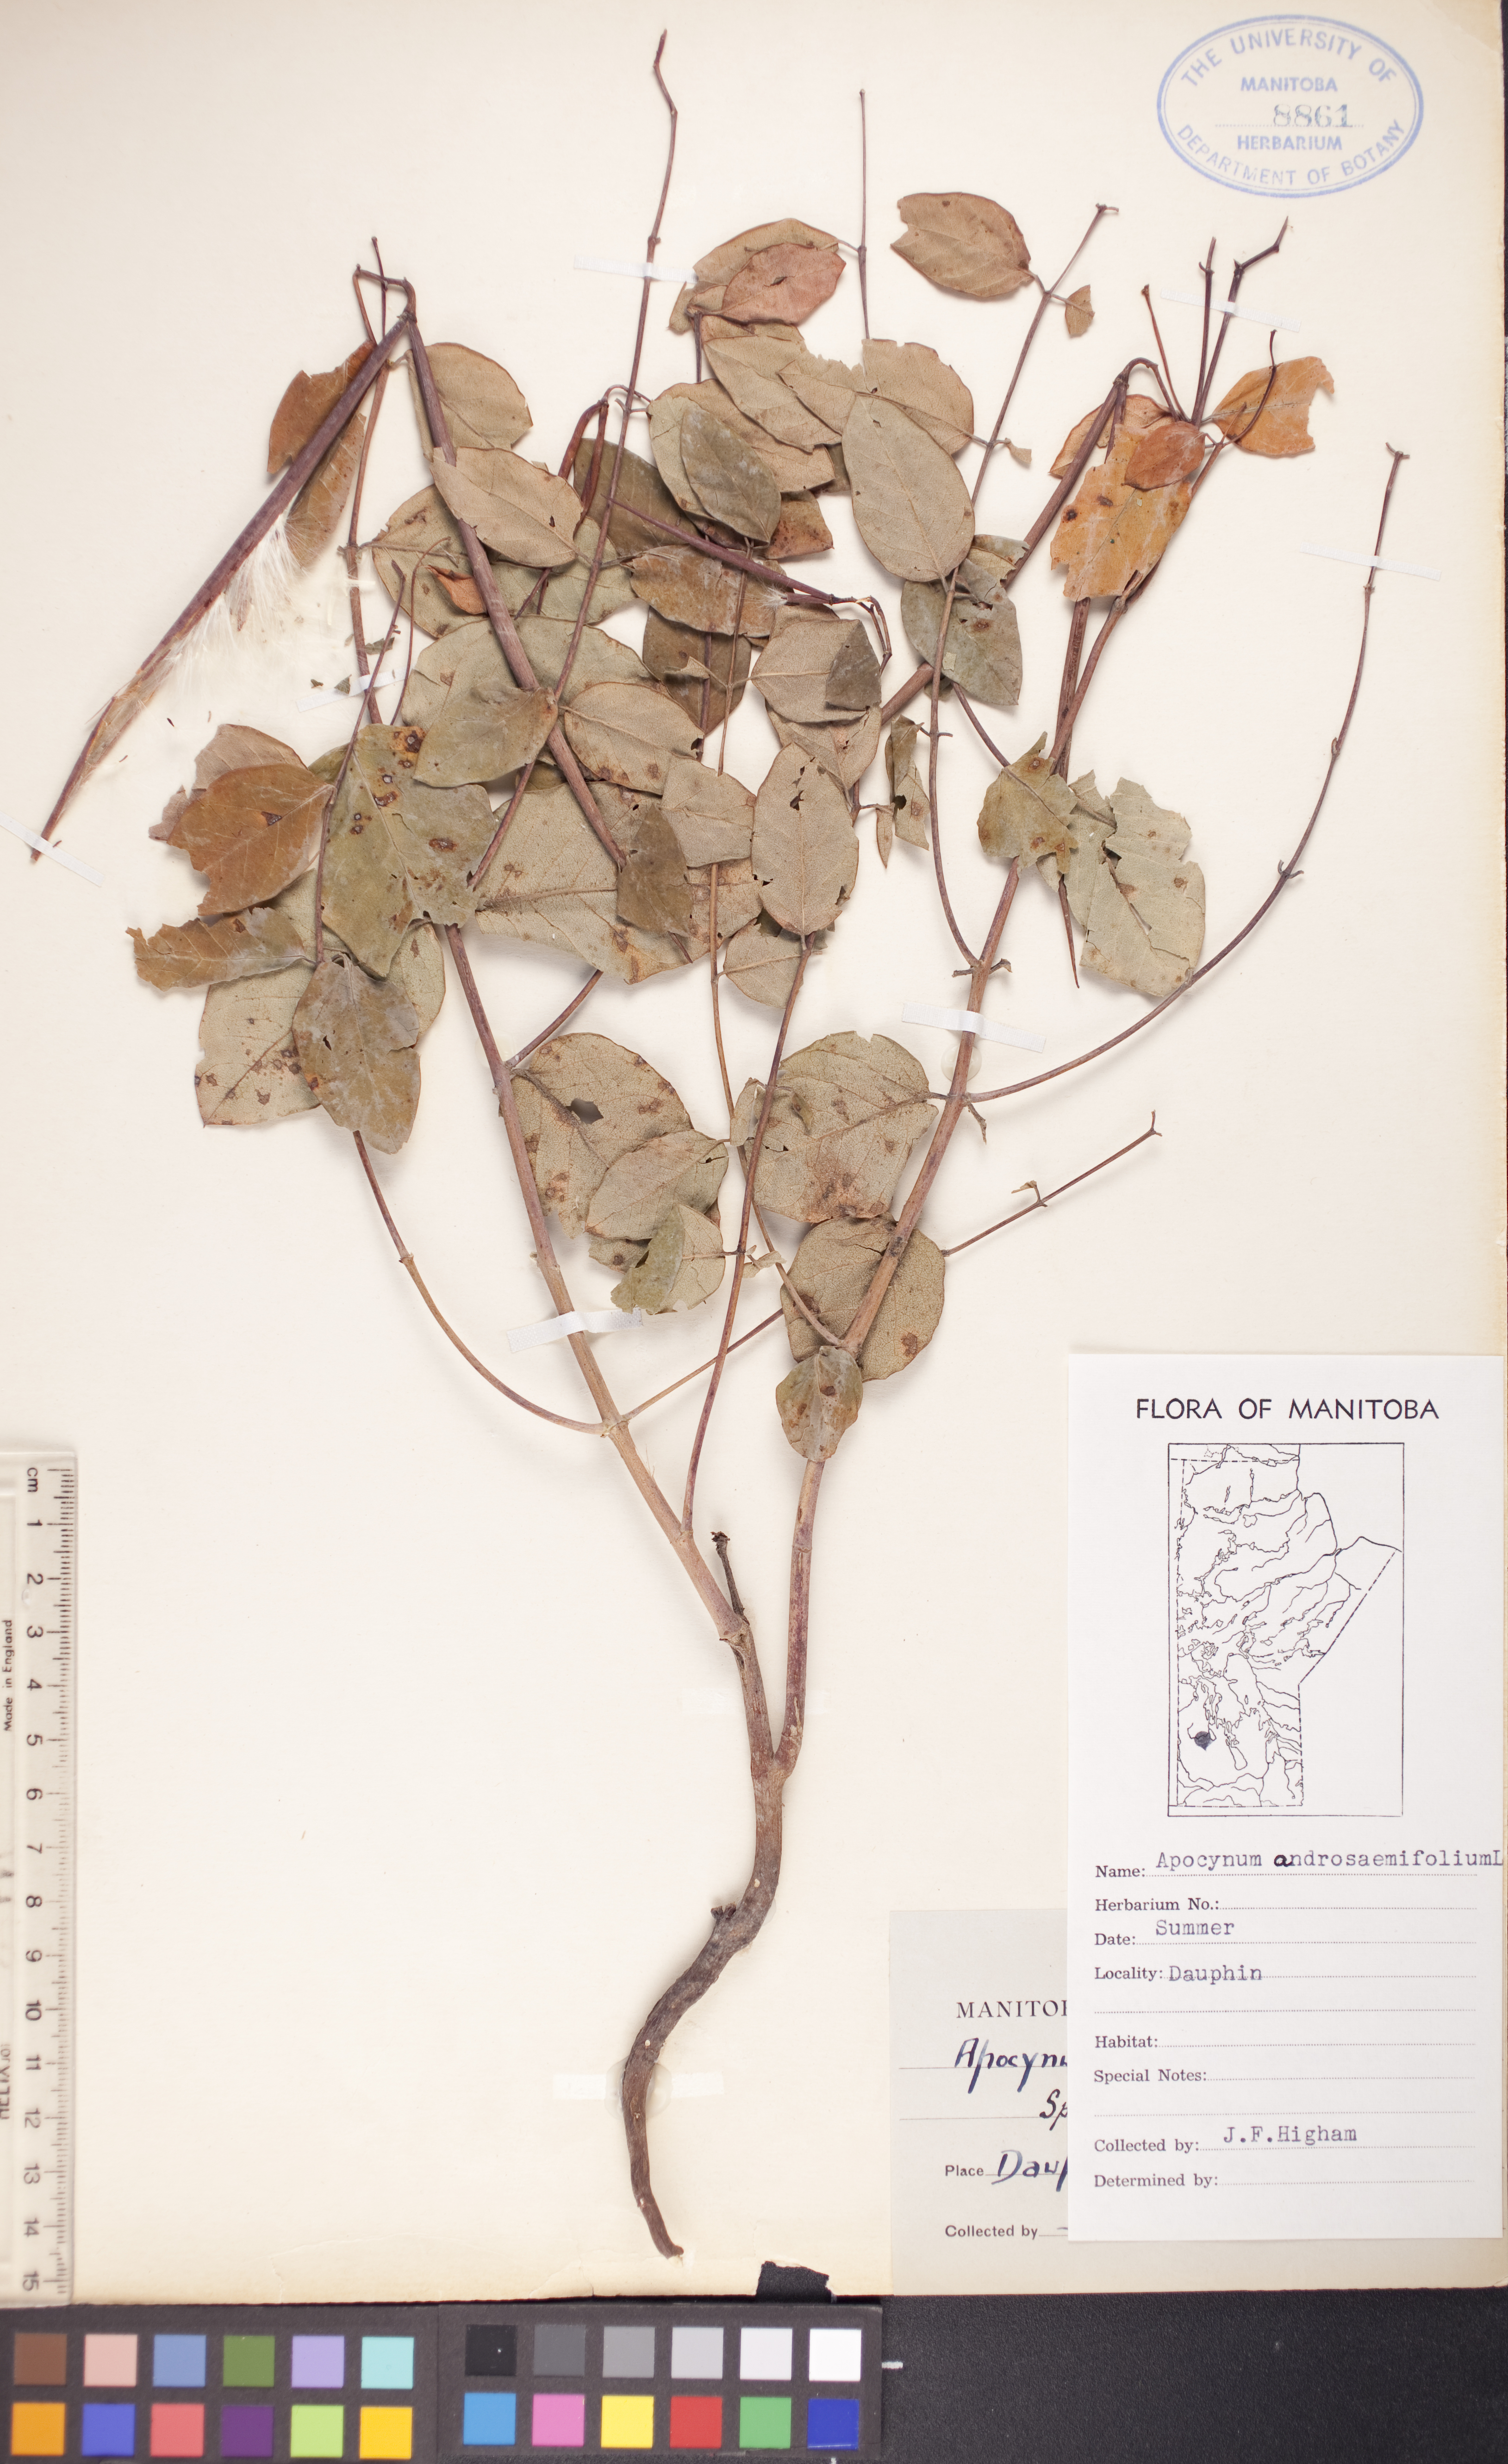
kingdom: Plantae
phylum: Tracheophyta
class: Magnoliopsida
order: Gentianales
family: Apocynaceae
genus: Apocynum
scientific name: Apocynum androsaemifolium
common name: Spreading dogbane
